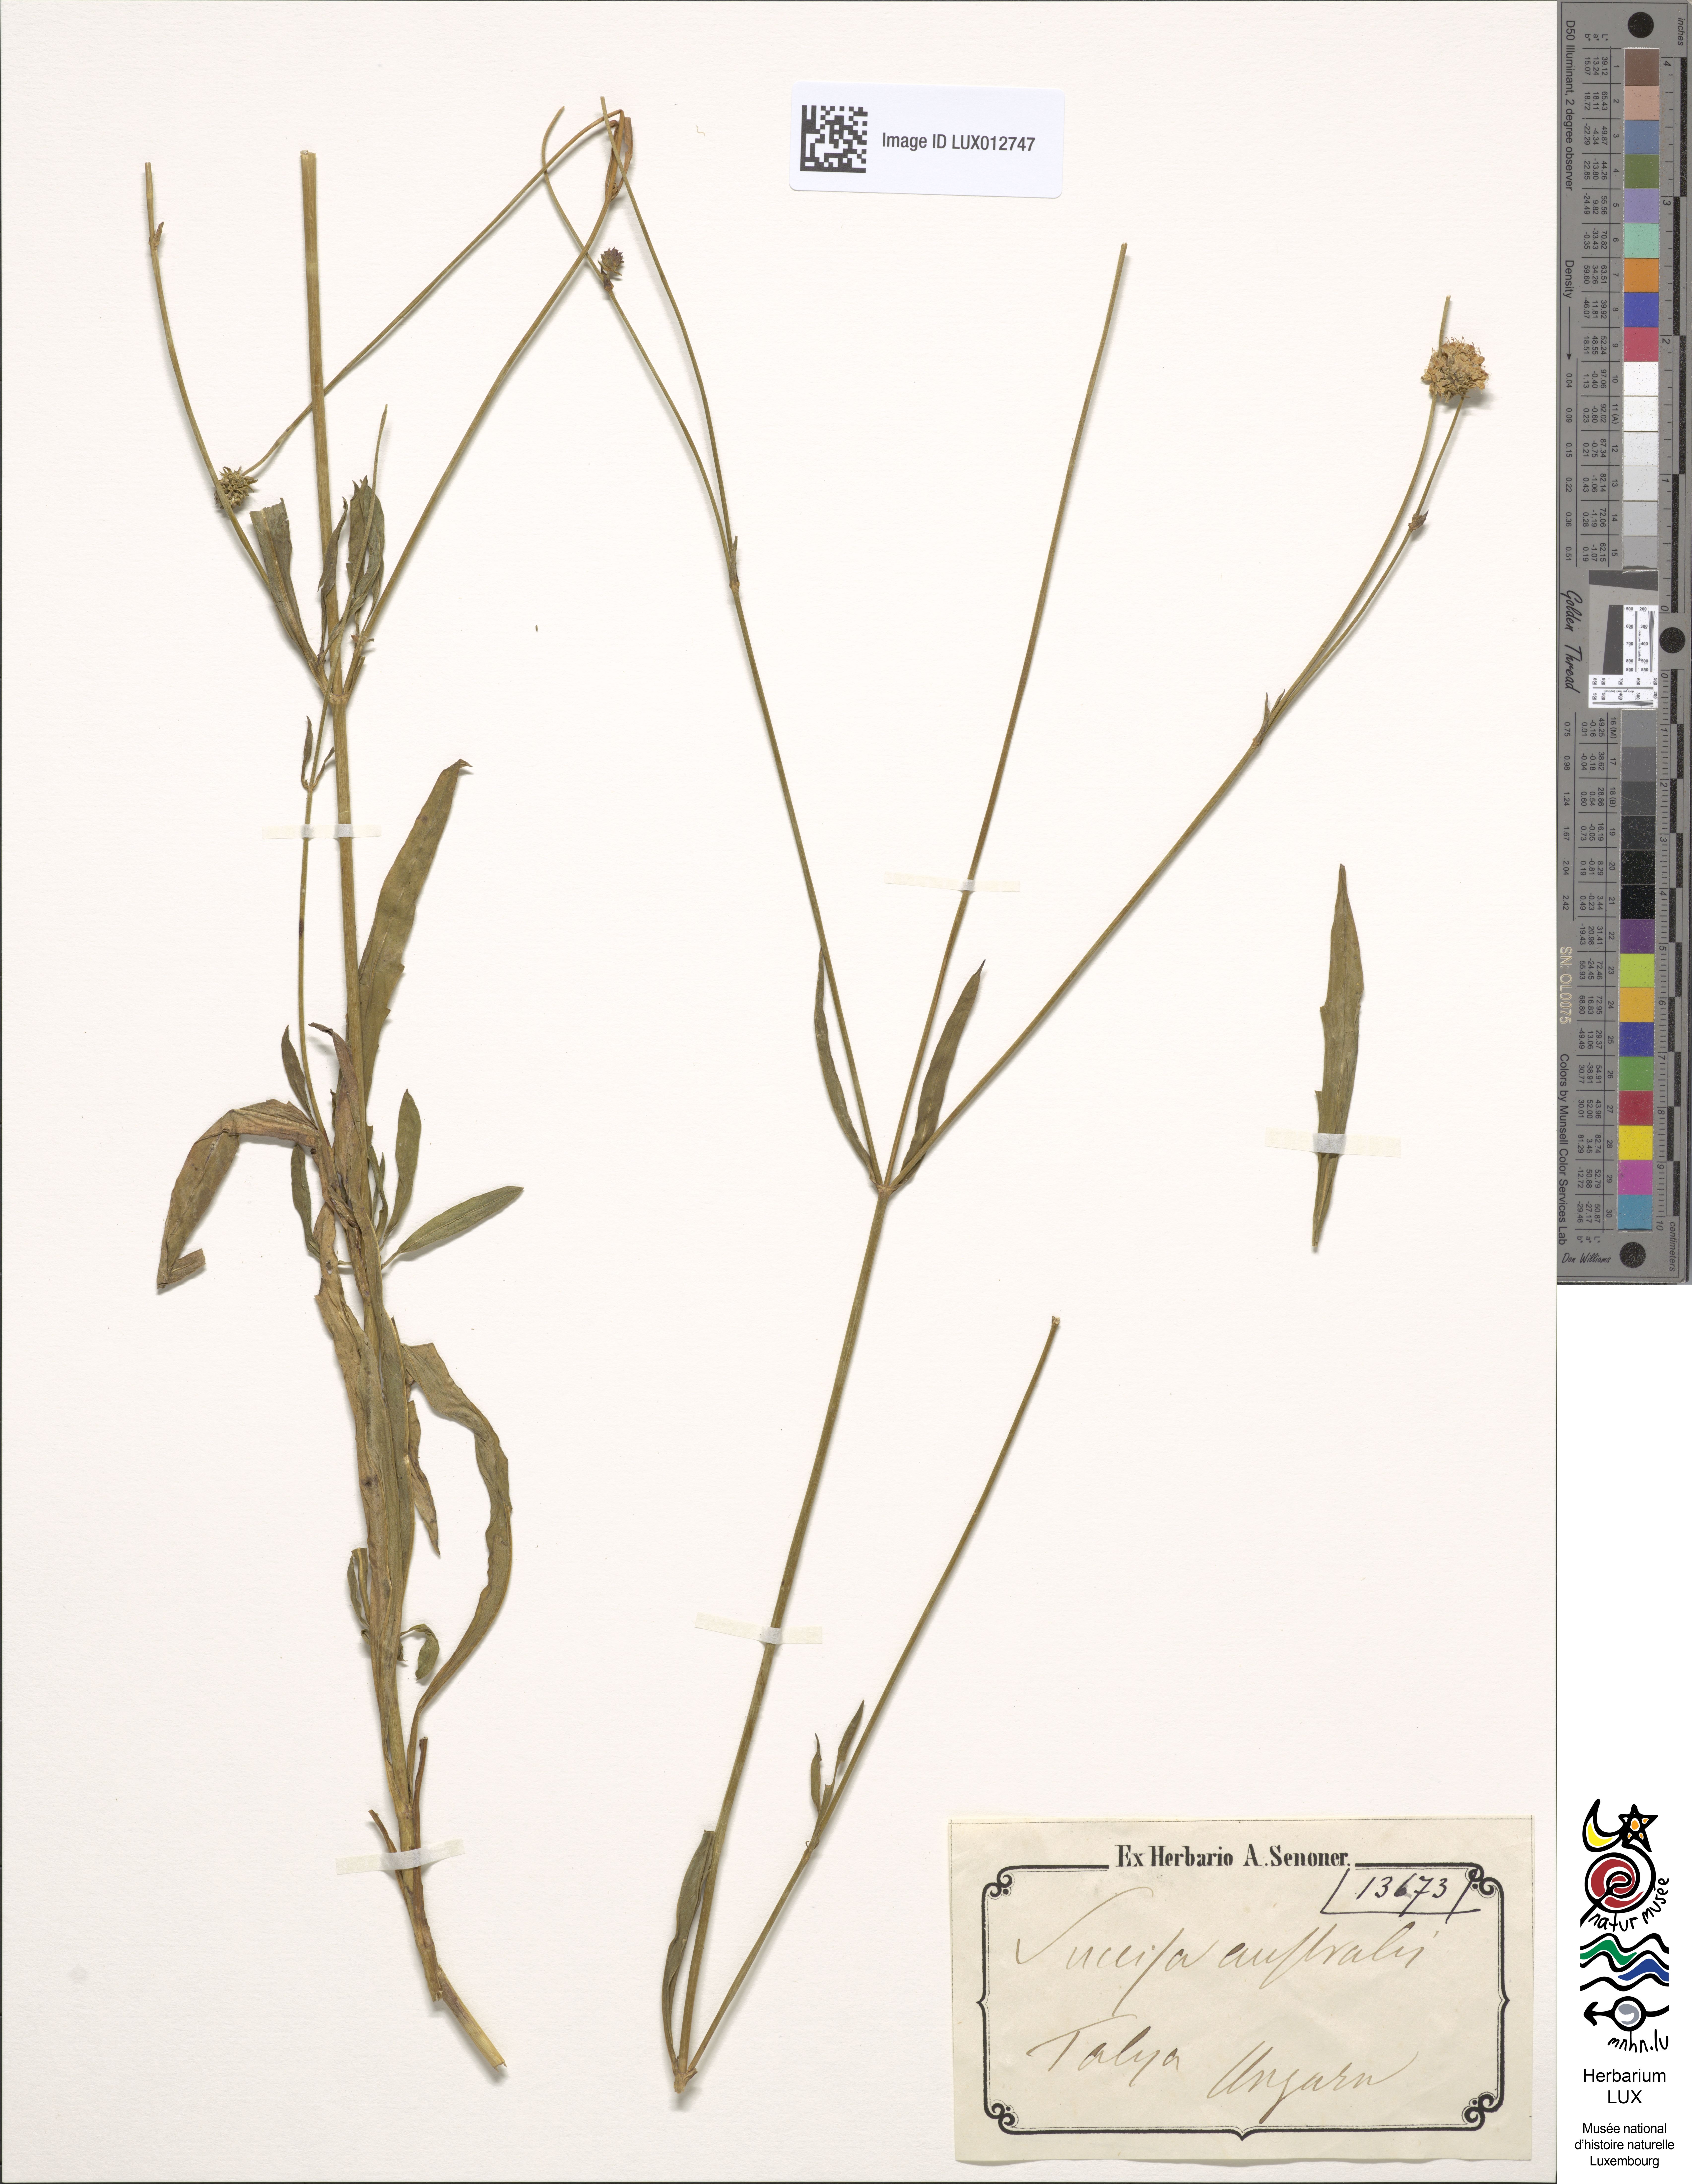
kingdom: Plantae
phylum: Tracheophyta
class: Magnoliopsida
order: Dipsacales
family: Caprifoliaceae
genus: Succisella
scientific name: Succisella inflexa
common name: Southern succisella
